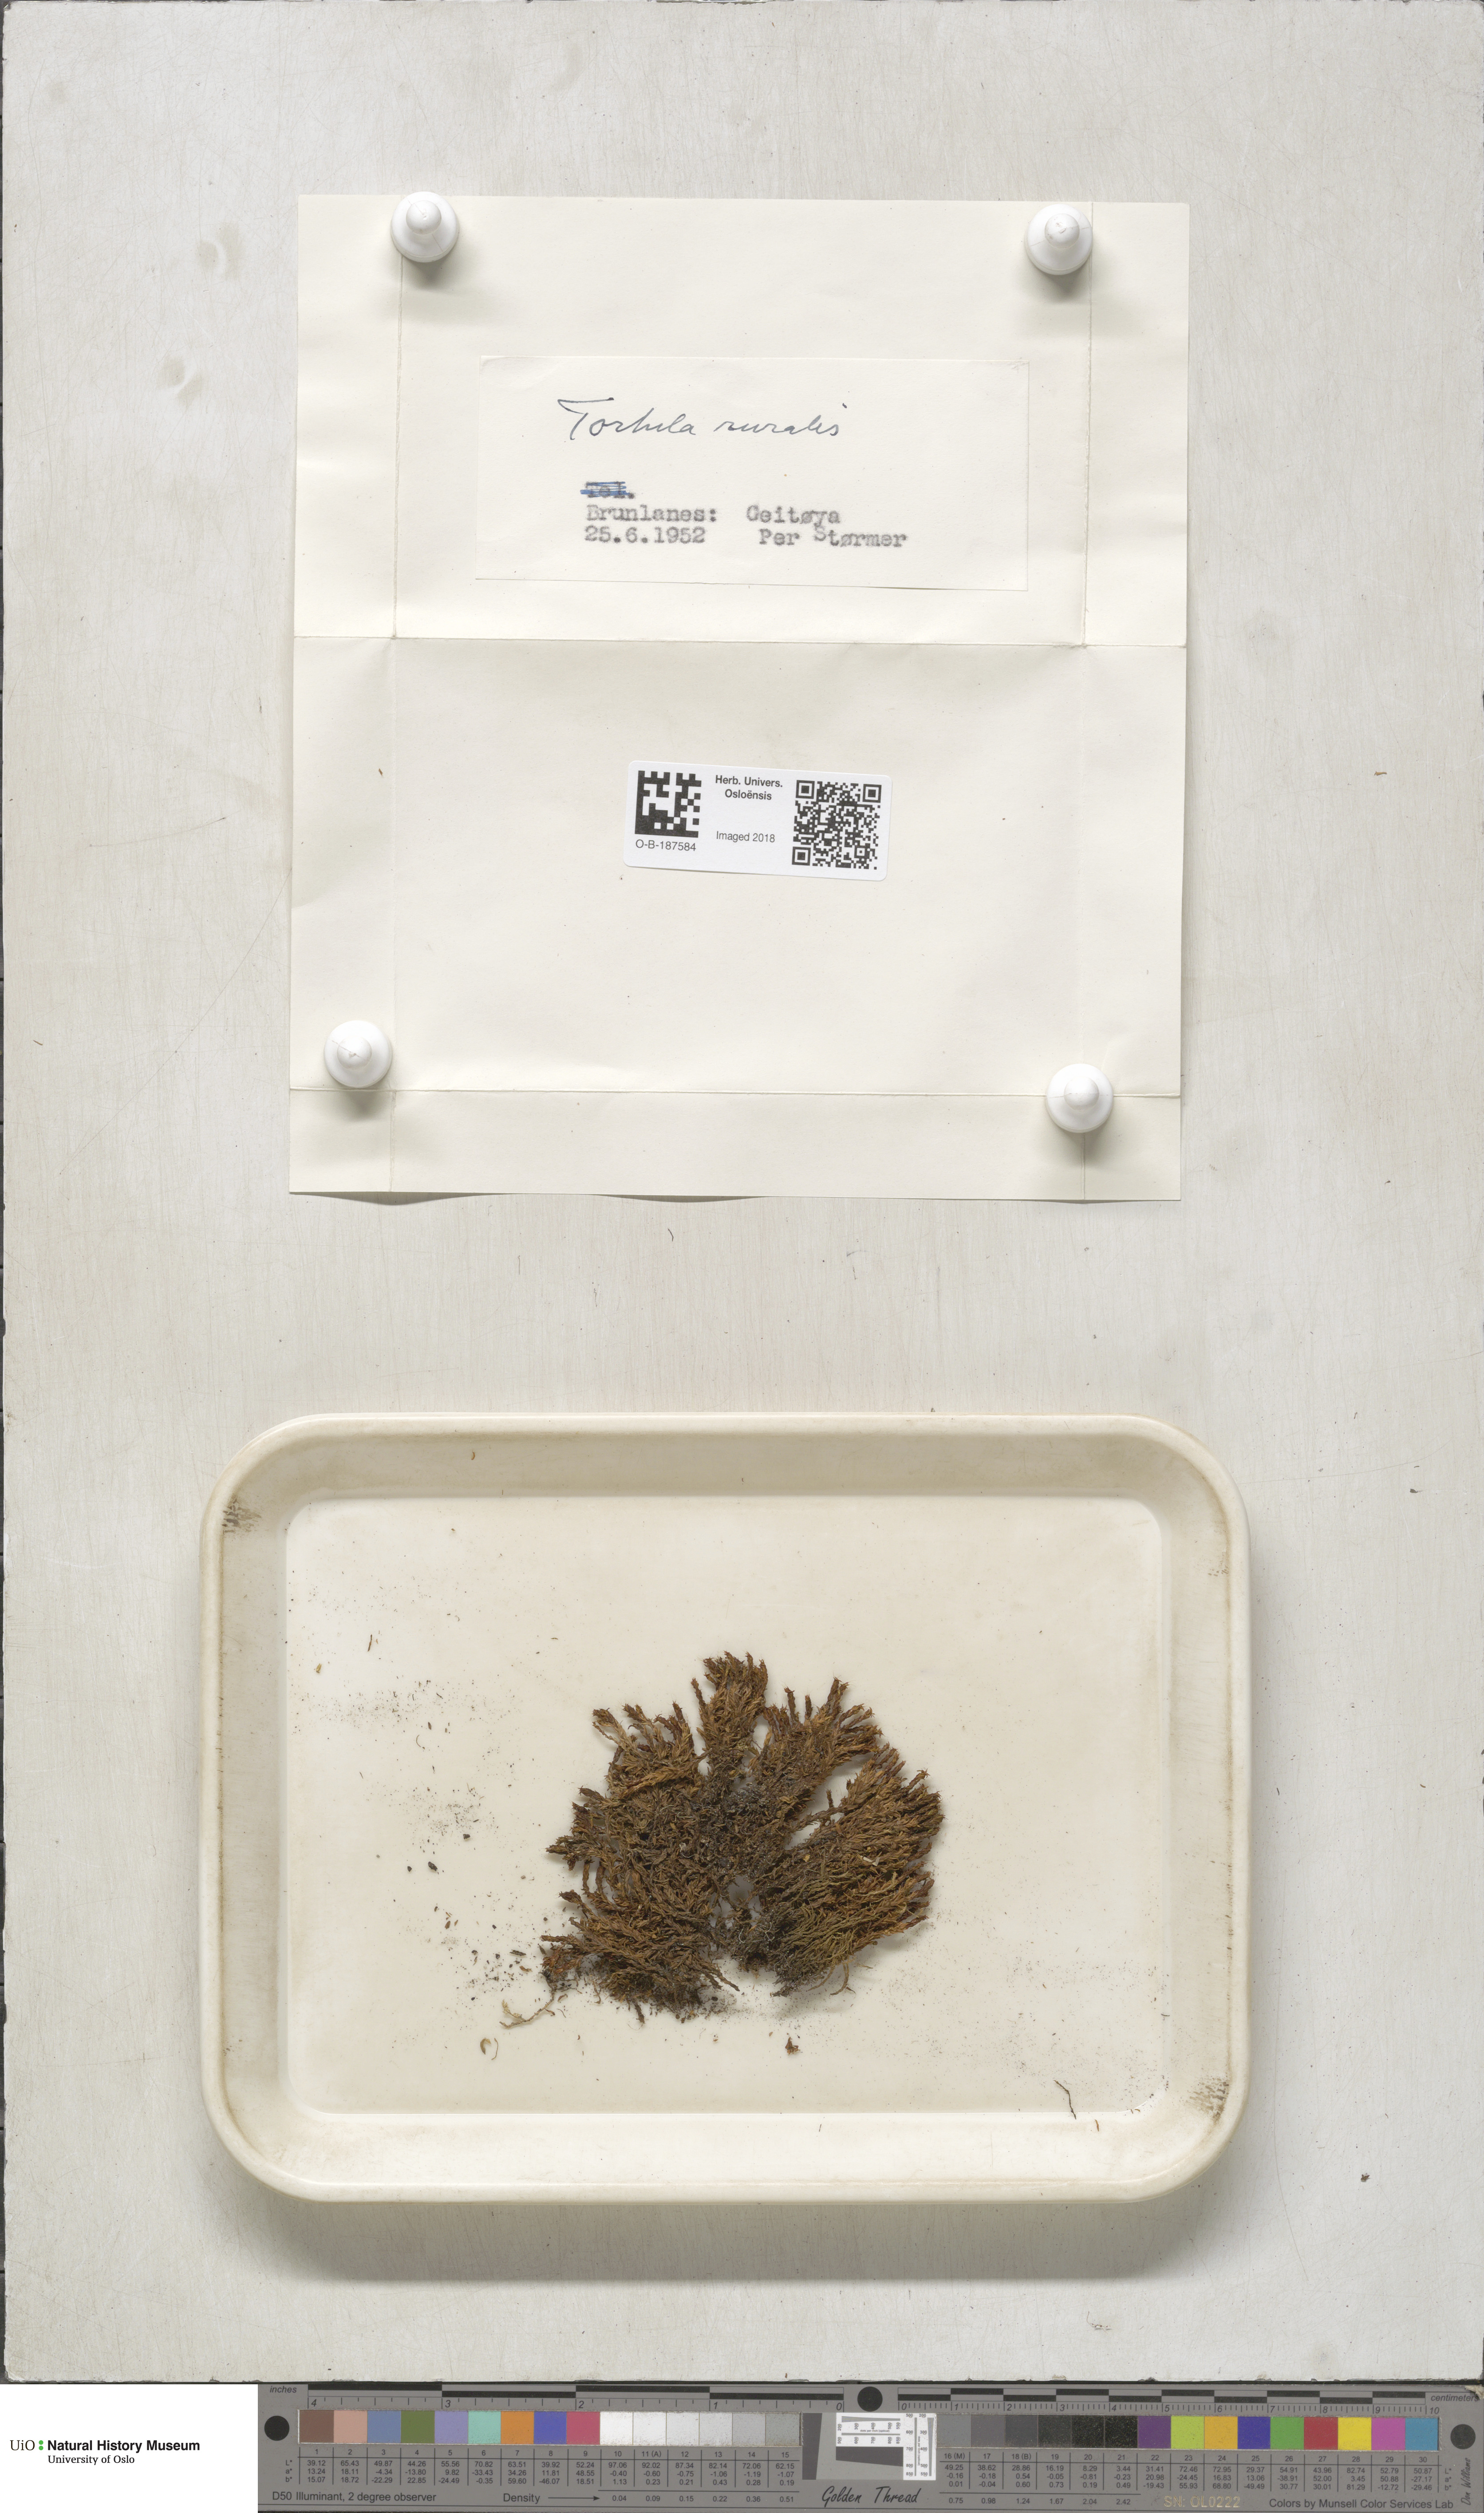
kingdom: Plantae
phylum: Bryophyta
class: Bryopsida
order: Pottiales
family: Pottiaceae
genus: Syntrichia
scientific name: Syntrichia ruralis
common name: Sidewalk screw moss
